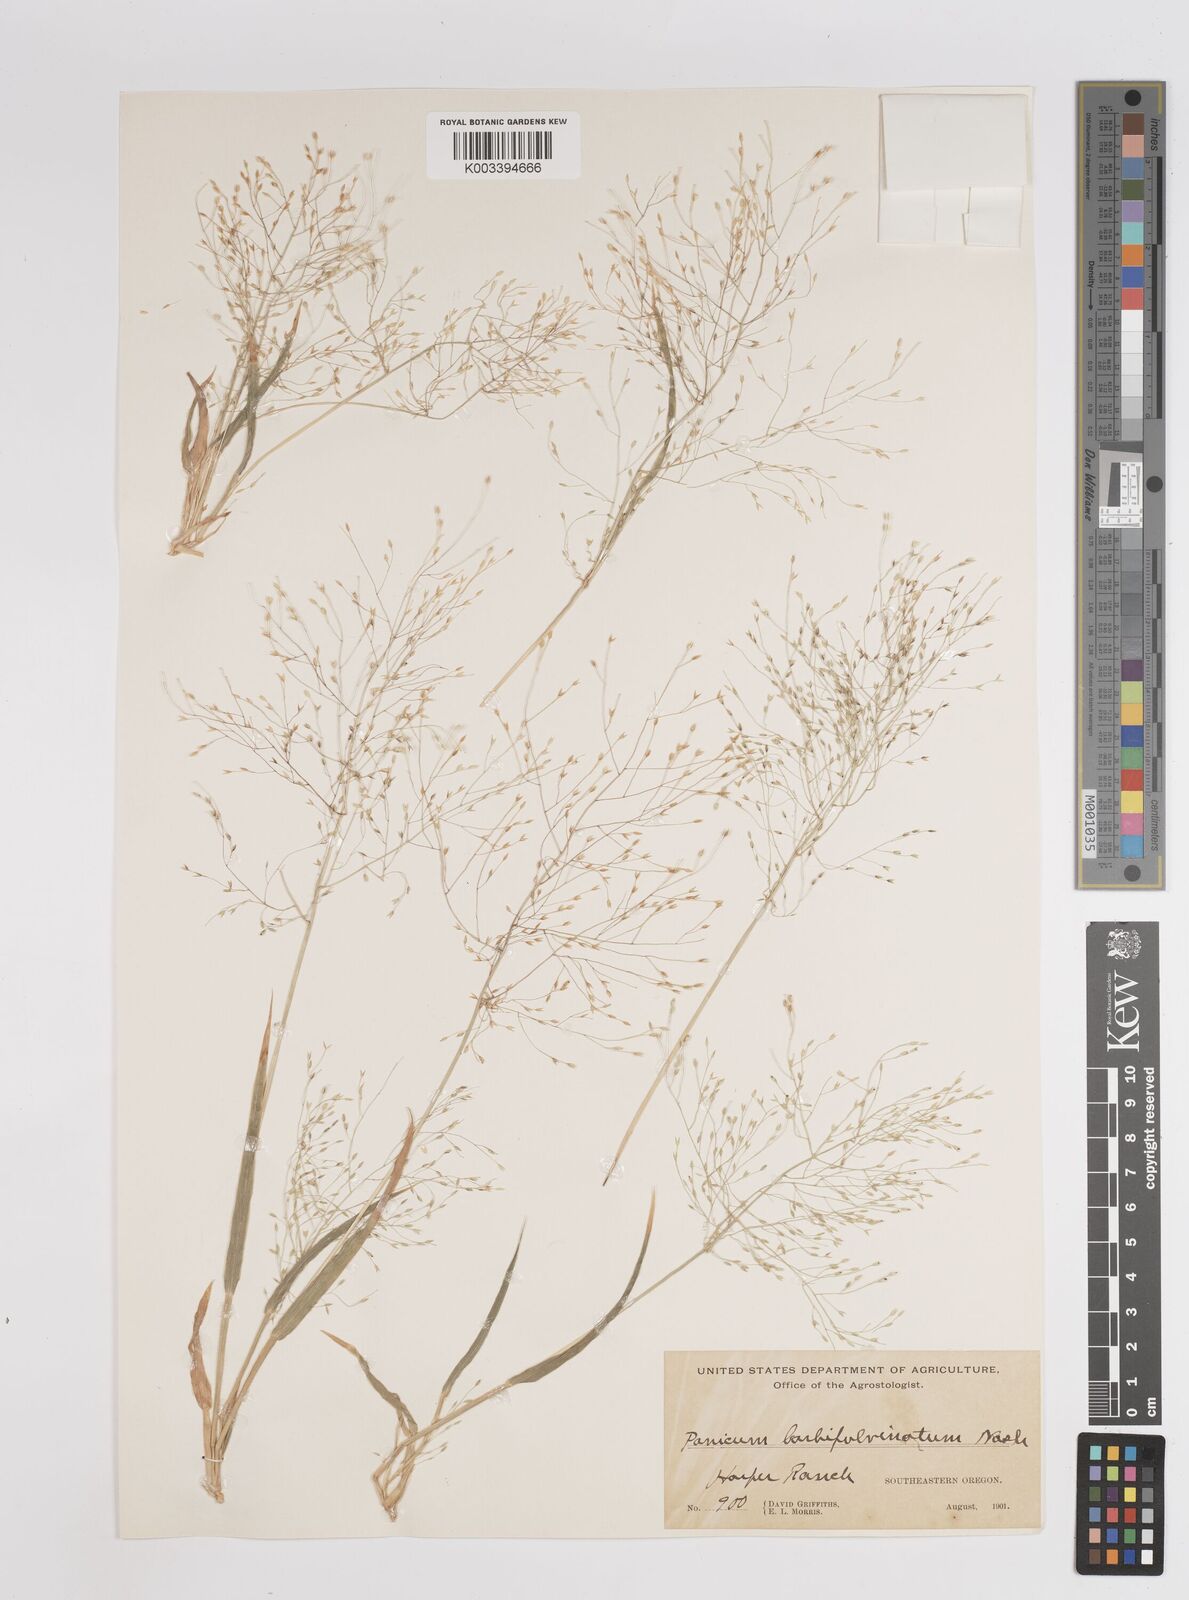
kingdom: Plantae
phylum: Tracheophyta
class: Liliopsida
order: Poales
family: Poaceae
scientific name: Poaceae
